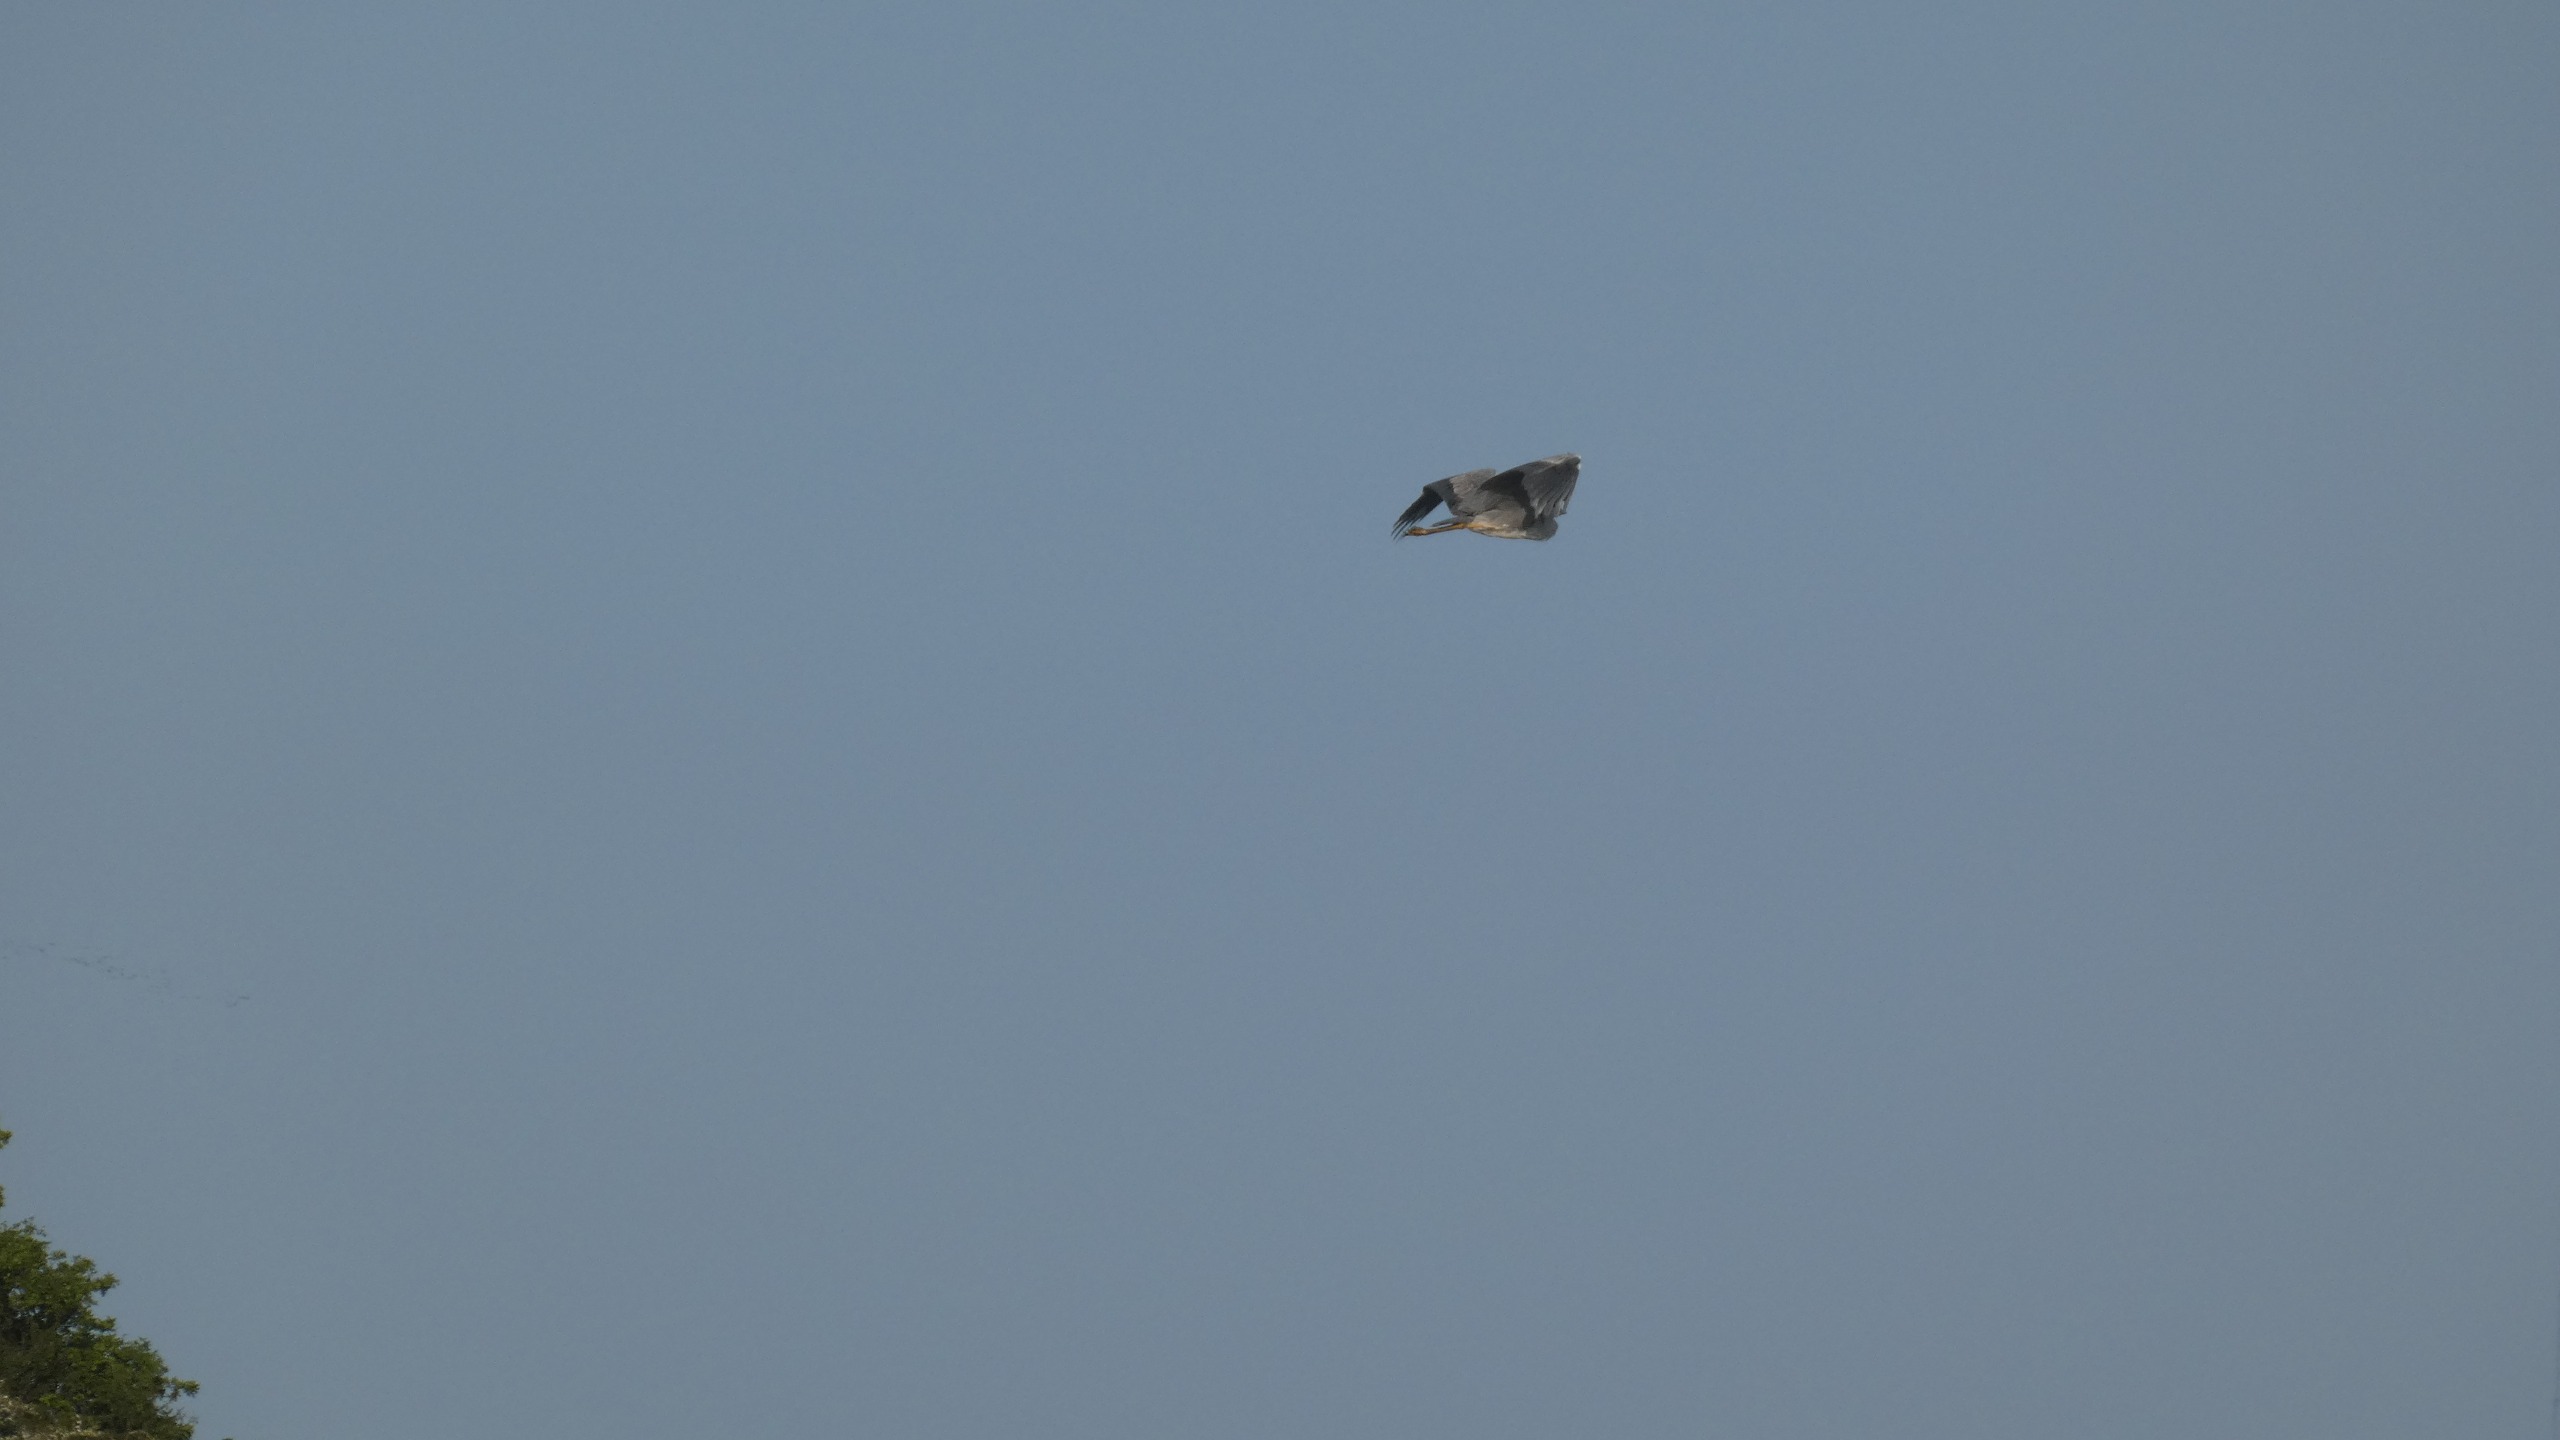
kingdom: Animalia
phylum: Chordata
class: Aves
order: Pelecaniformes
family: Ardeidae
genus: Ardea
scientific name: Ardea cinerea
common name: Fiskehejre
